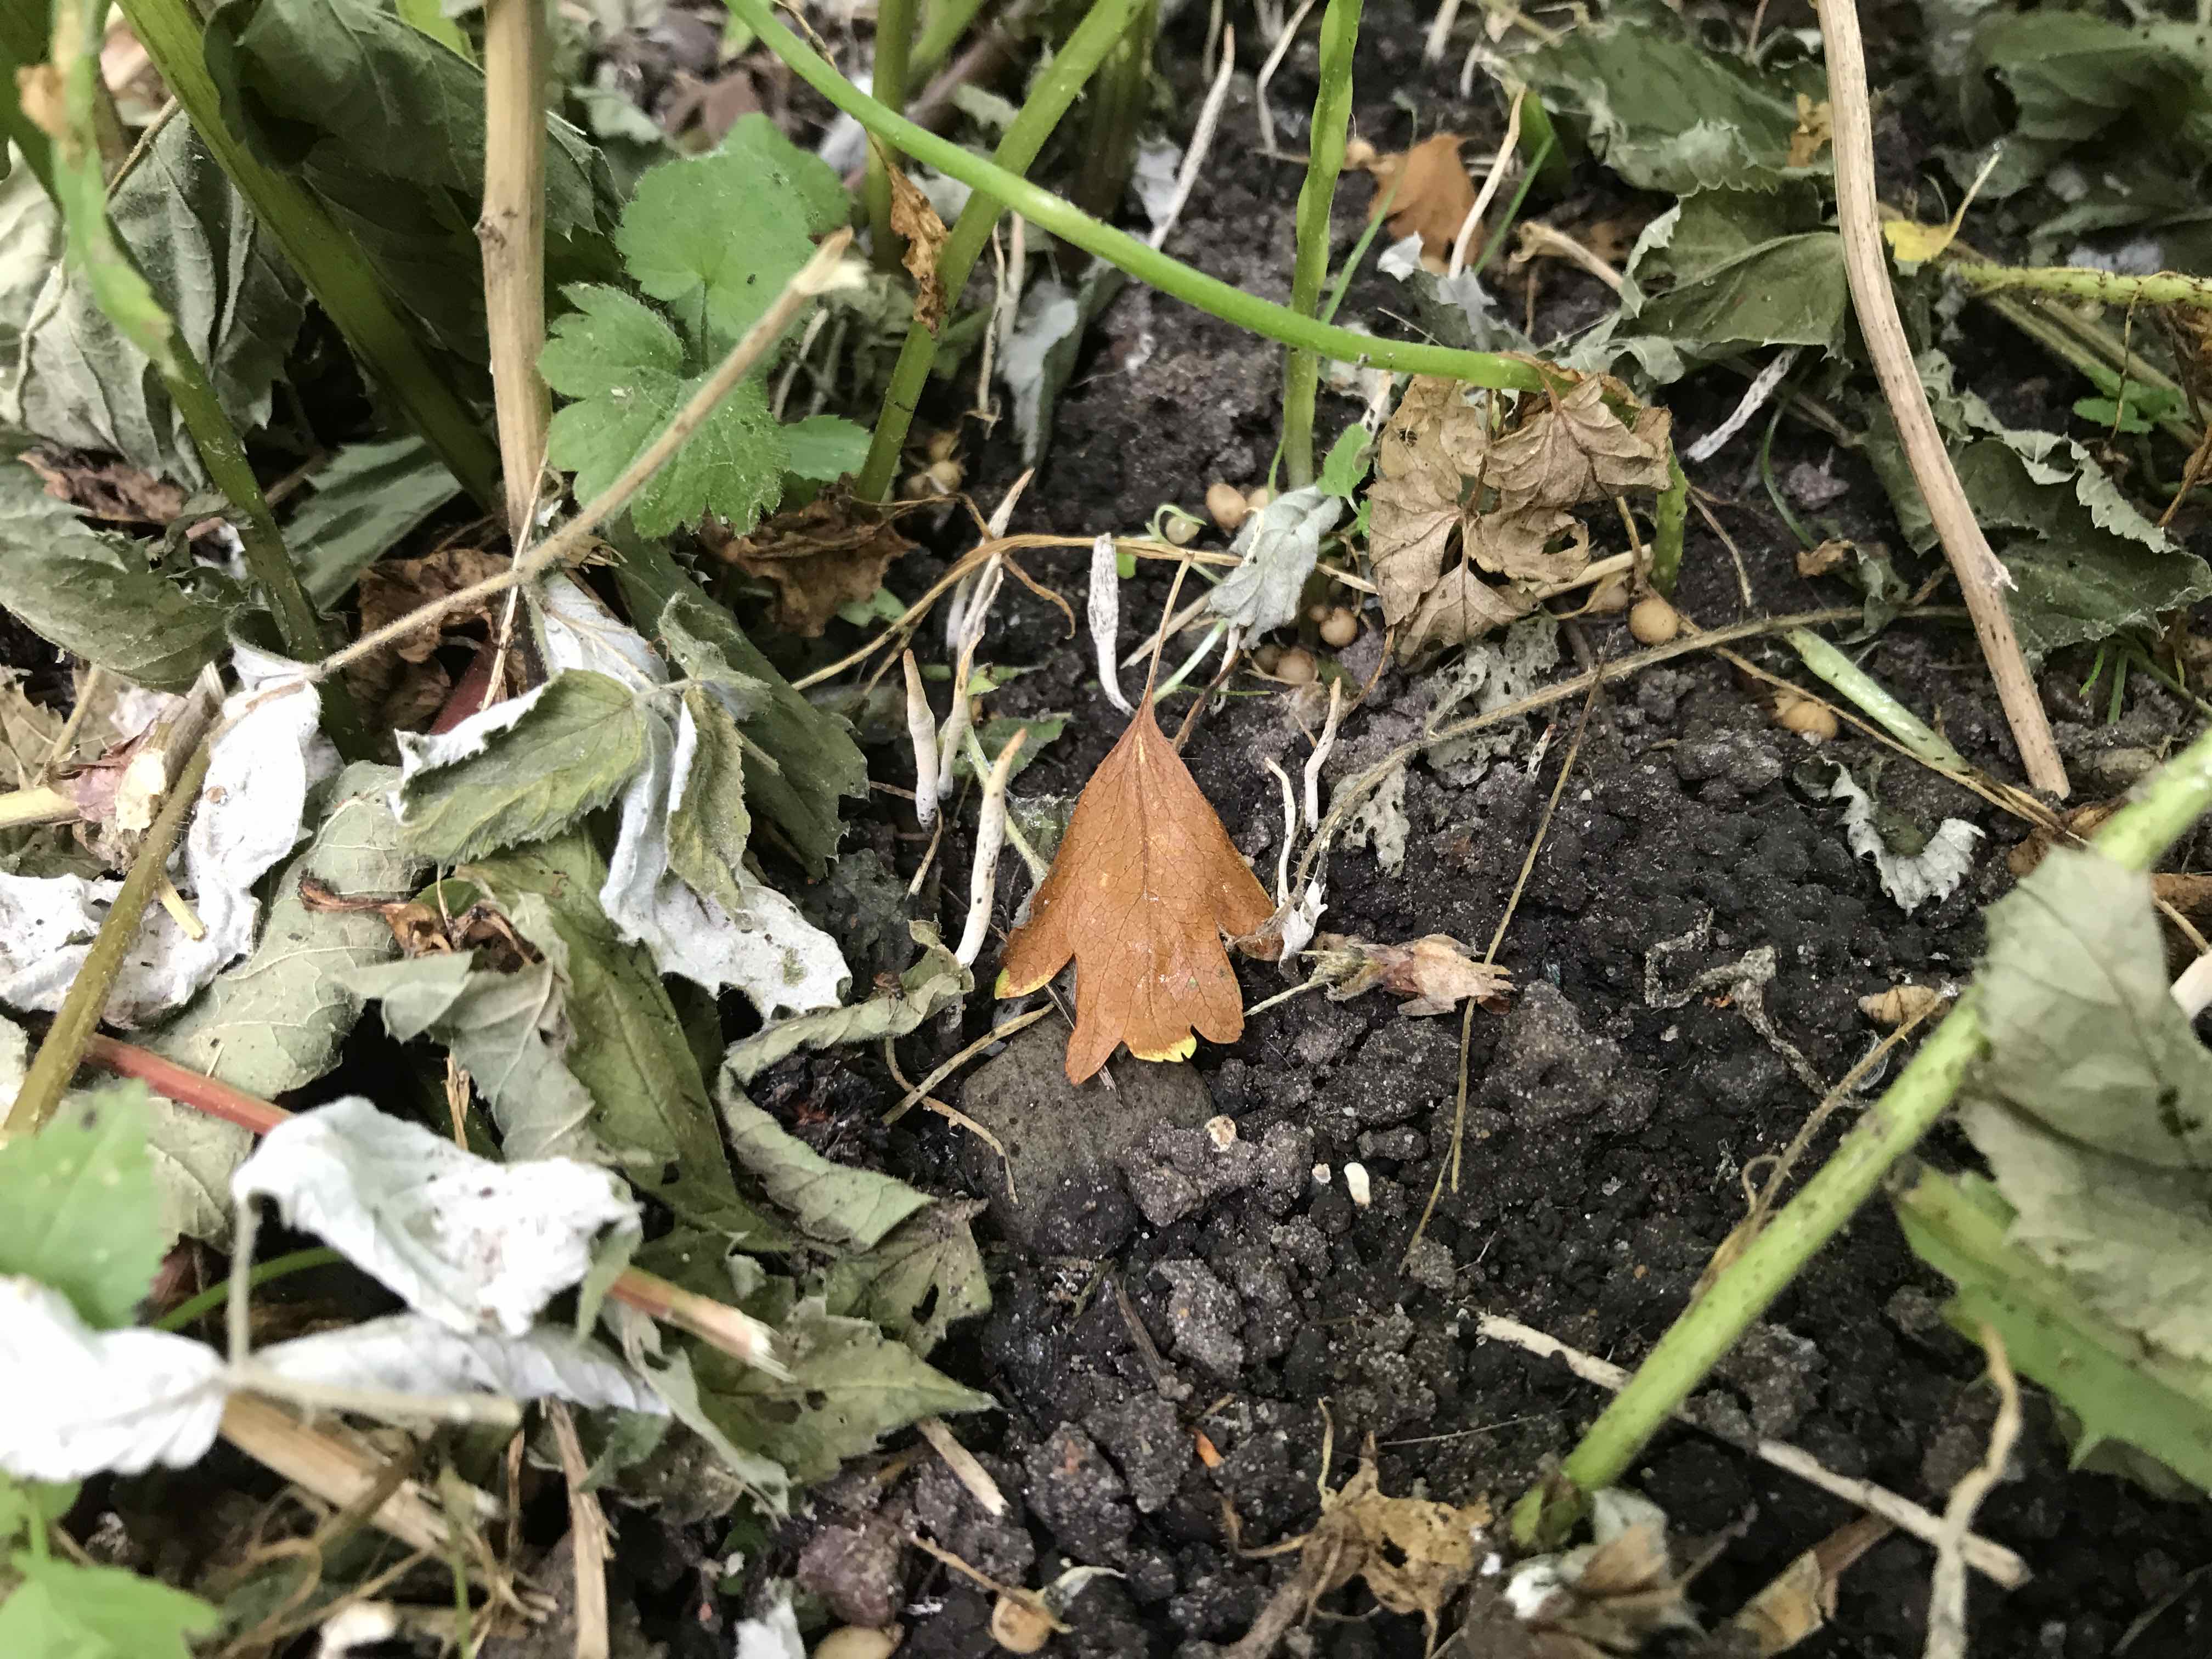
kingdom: Fungi
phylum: Ascomycota
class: Sordariomycetes
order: Xylariales
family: Xylariaceae
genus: Xylaria
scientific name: Xylaria oxyacanthae
